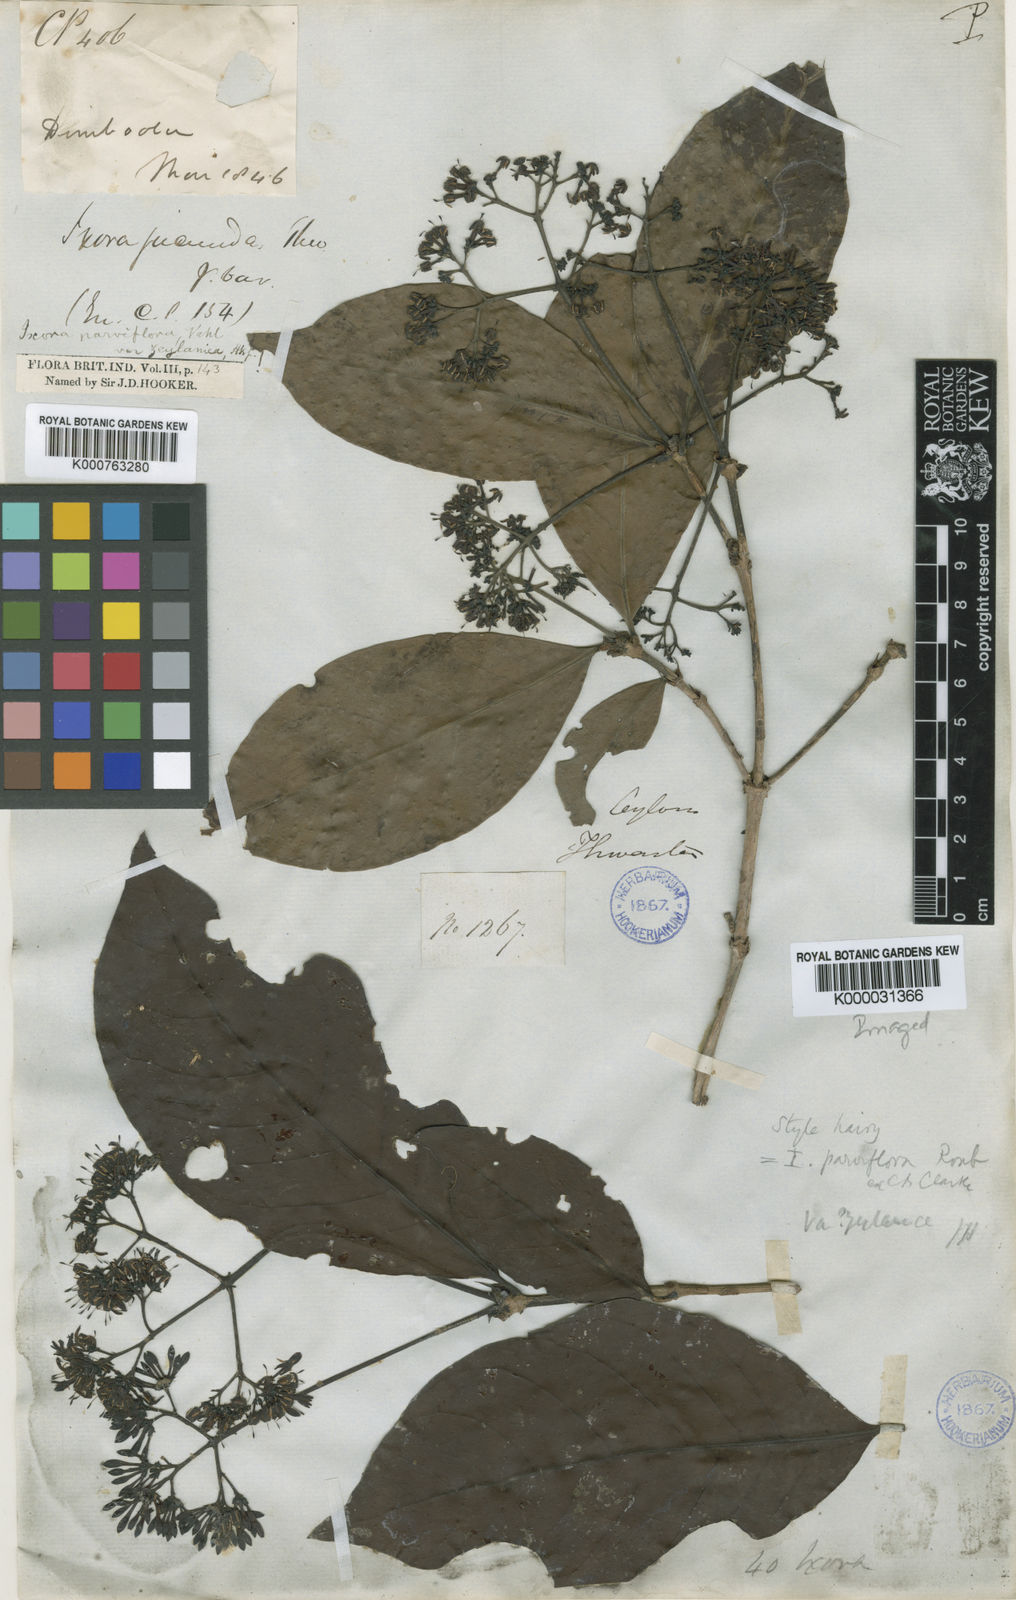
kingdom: Plantae
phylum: Tracheophyta
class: Magnoliopsida
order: Gentianales
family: Rubiaceae
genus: Ixora
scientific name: Ixora pavetta
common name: Torch tree
